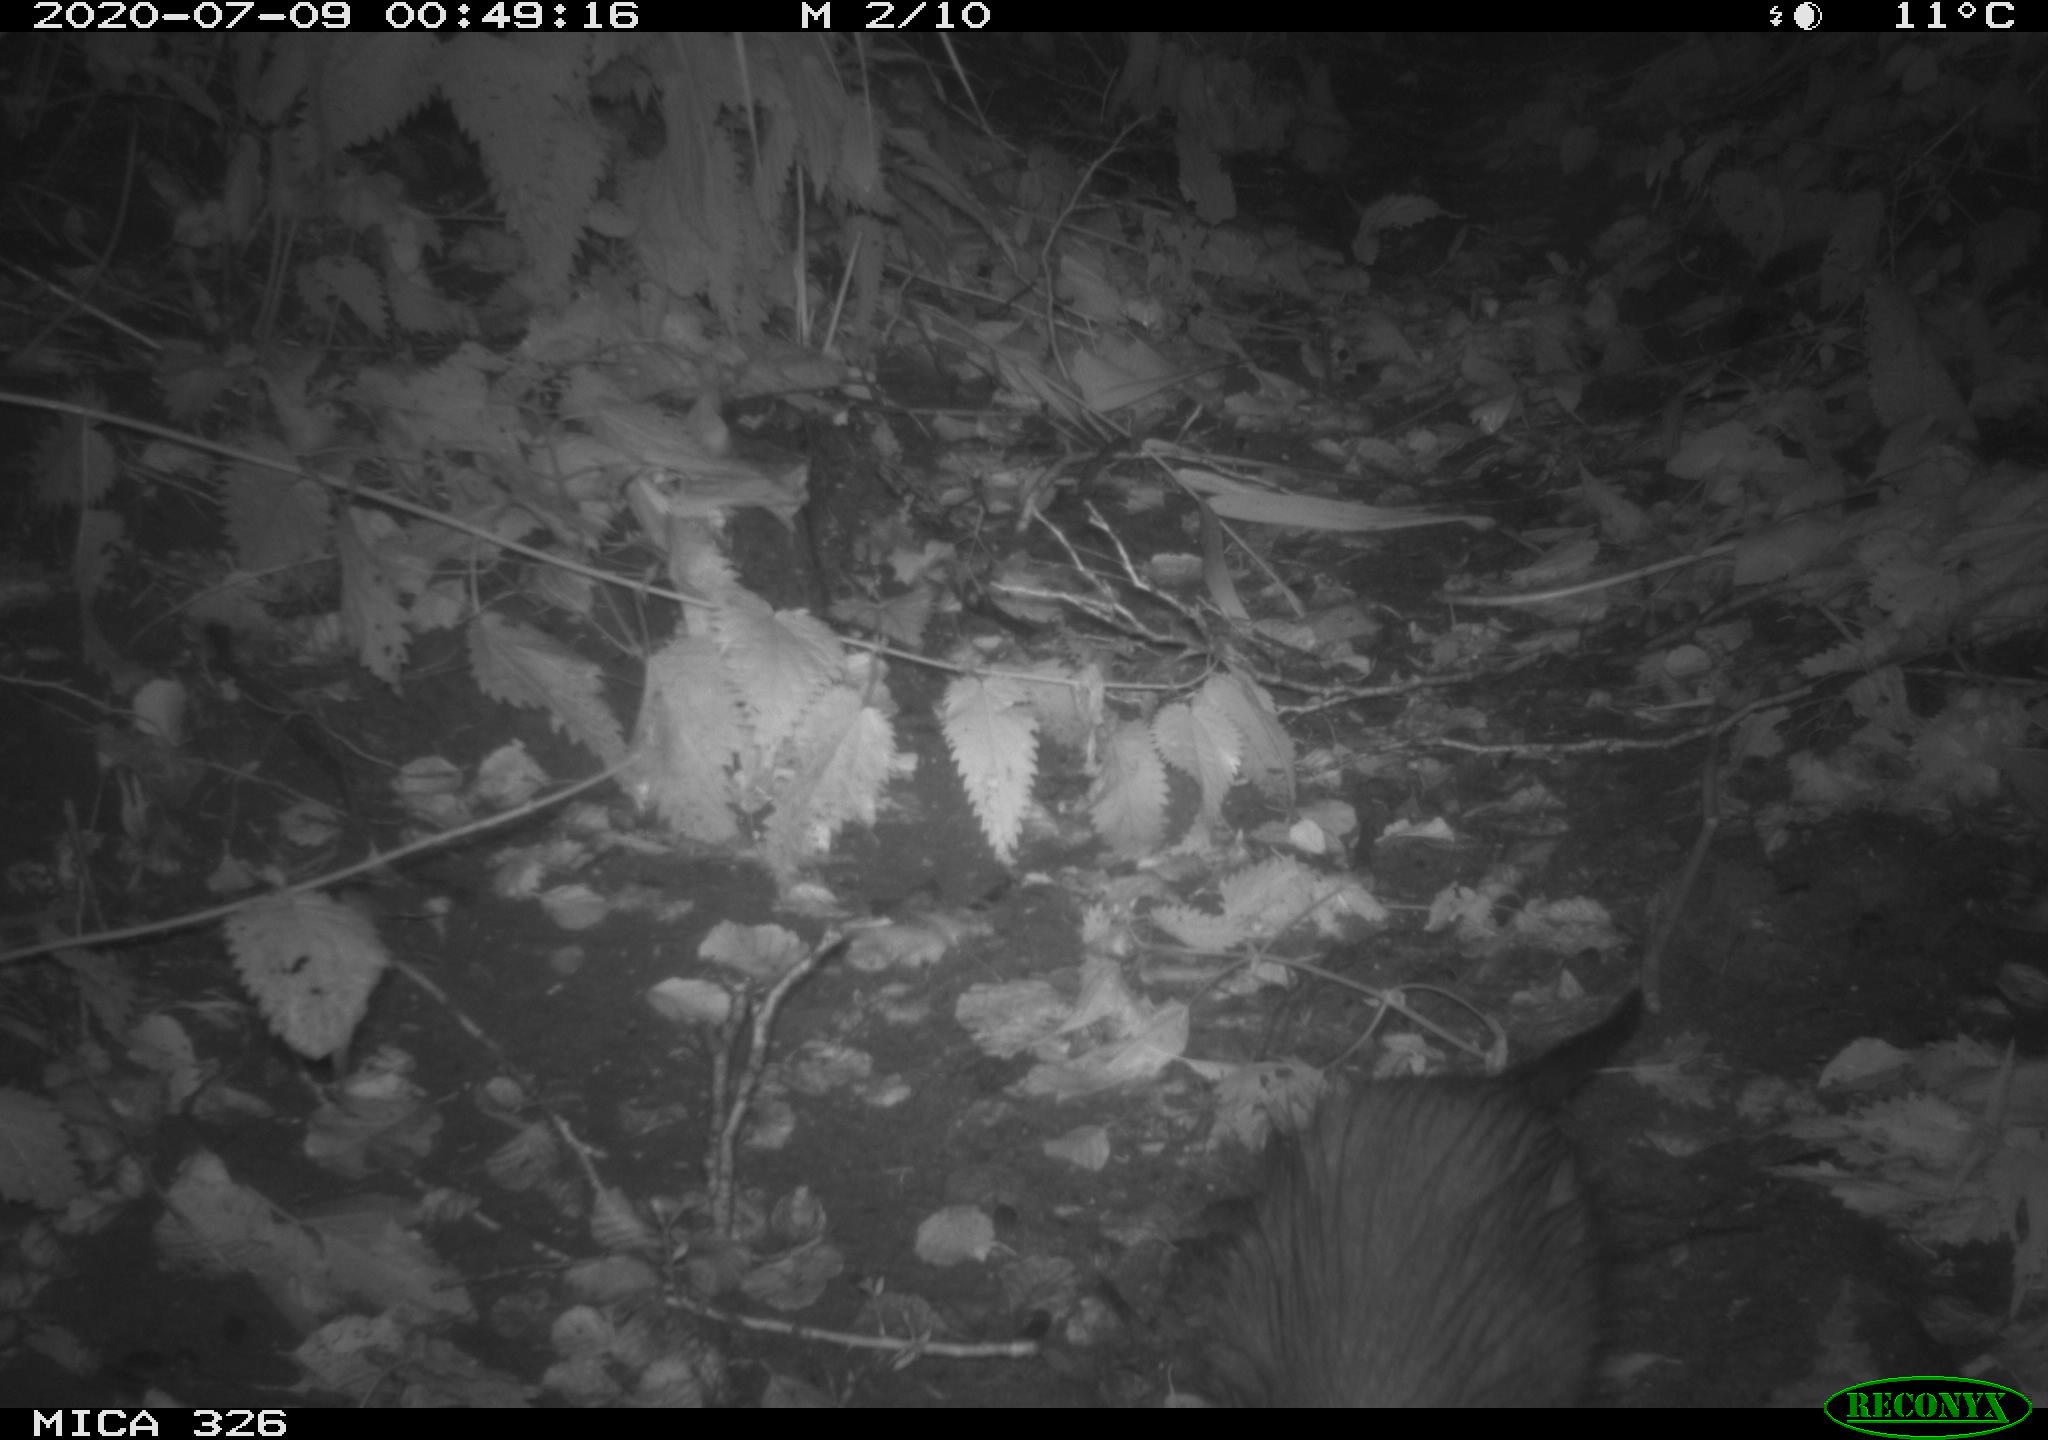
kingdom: Animalia
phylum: Chordata
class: Mammalia
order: Rodentia
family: Myocastoridae
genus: Myocastor
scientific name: Myocastor coypus
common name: Coypu
